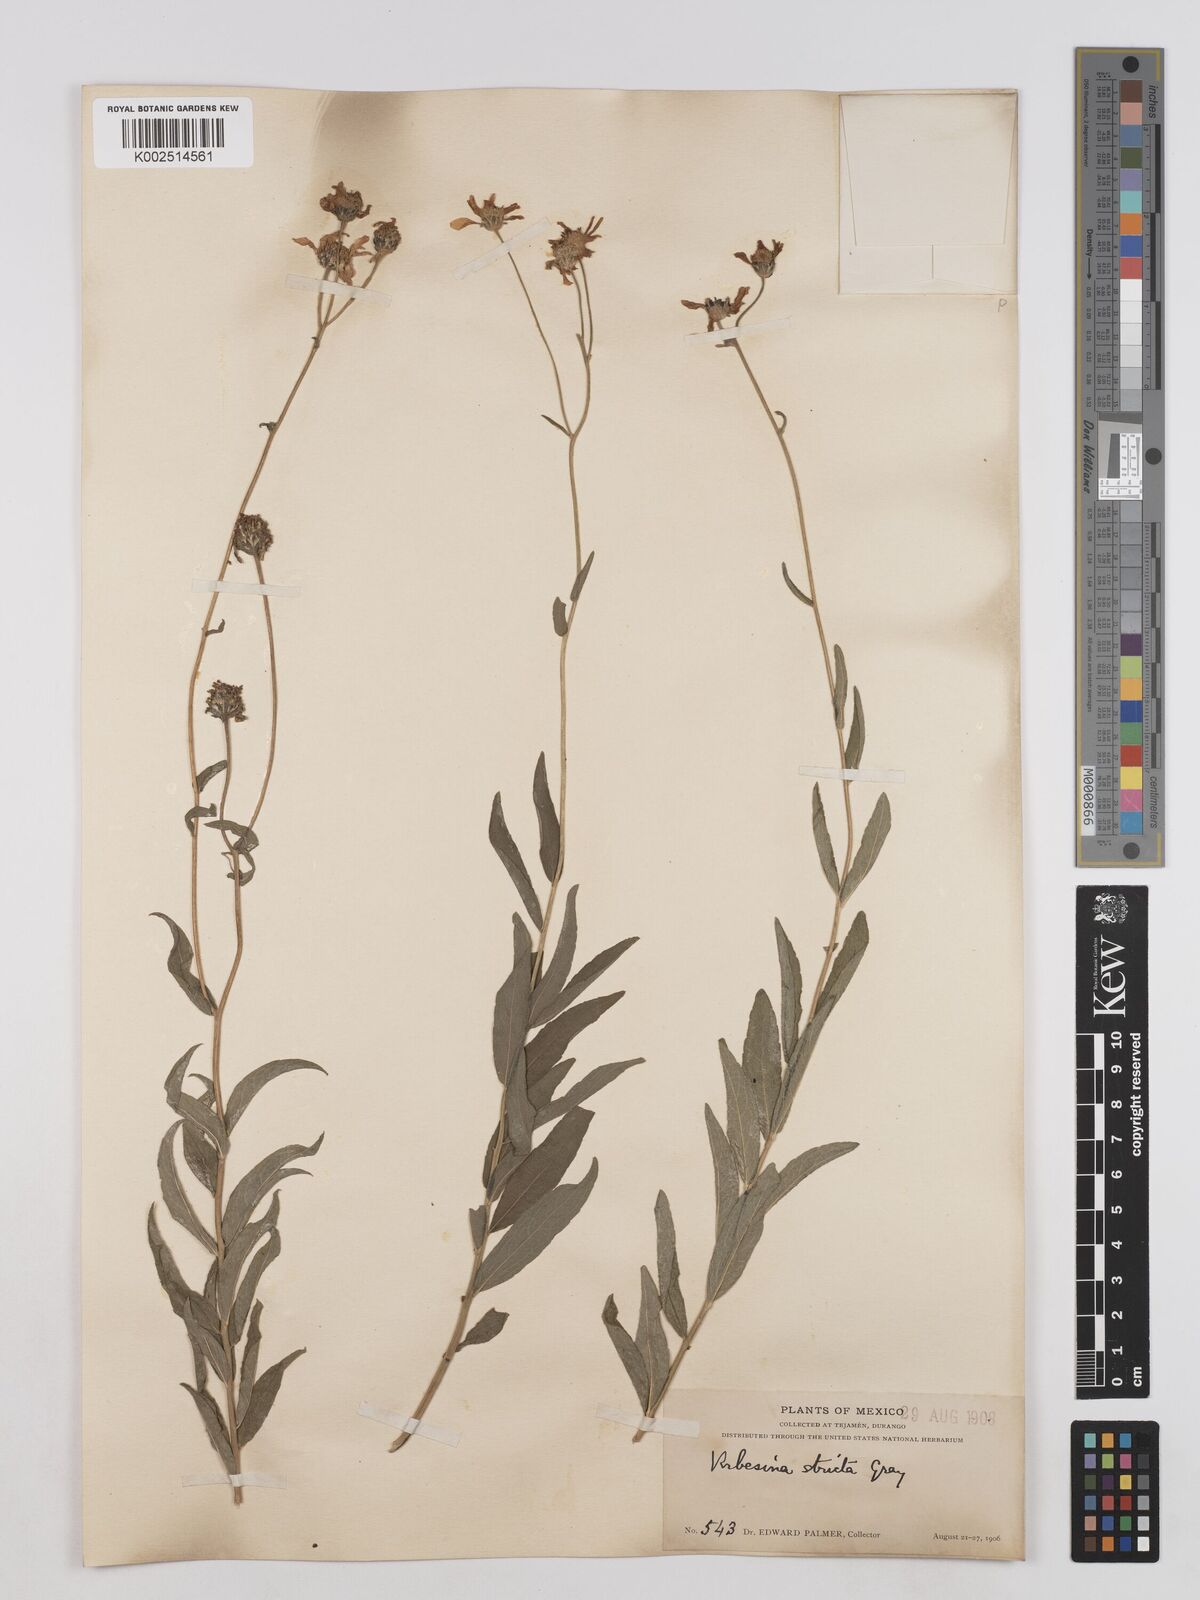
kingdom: Plantae
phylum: Tracheophyta
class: Magnoliopsida
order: Asterales
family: Asteraceae
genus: Verbesina
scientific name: Verbesina parviflora
